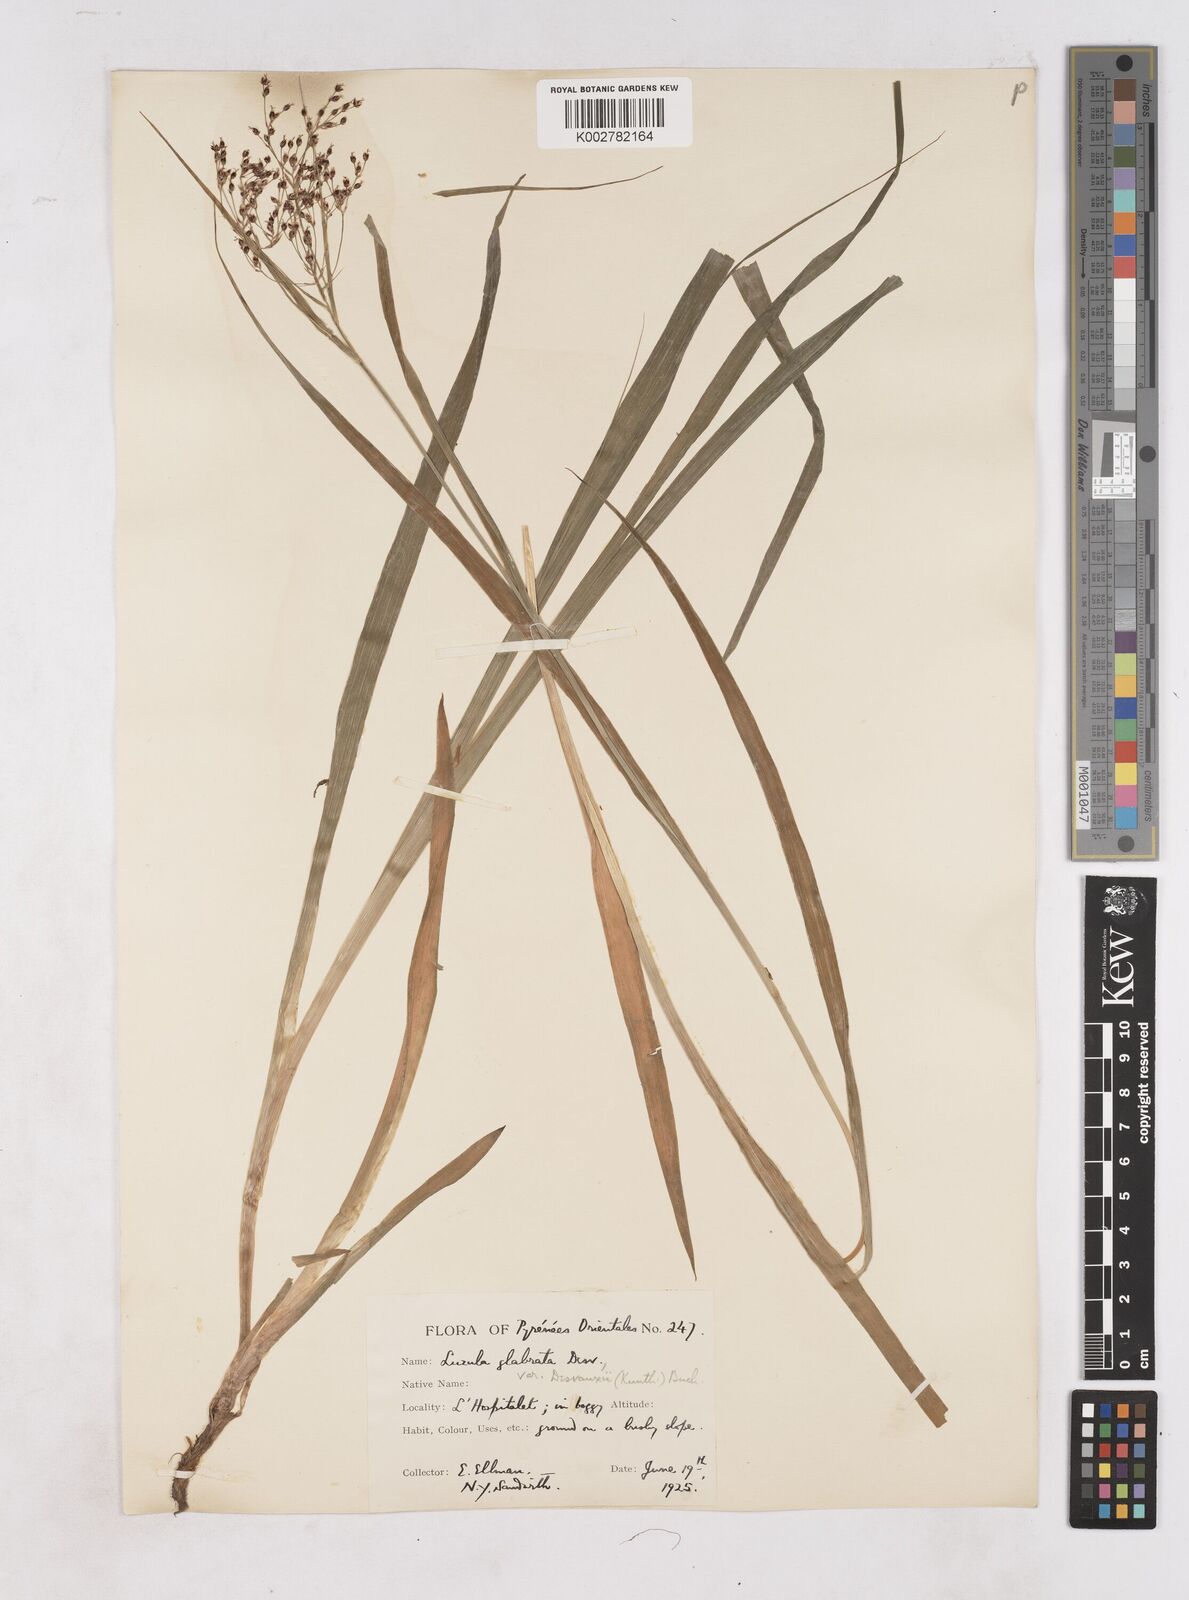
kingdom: Plantae
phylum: Tracheophyta
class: Liliopsida
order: Poales
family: Juncaceae
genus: Luzula
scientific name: Luzula glabrata
